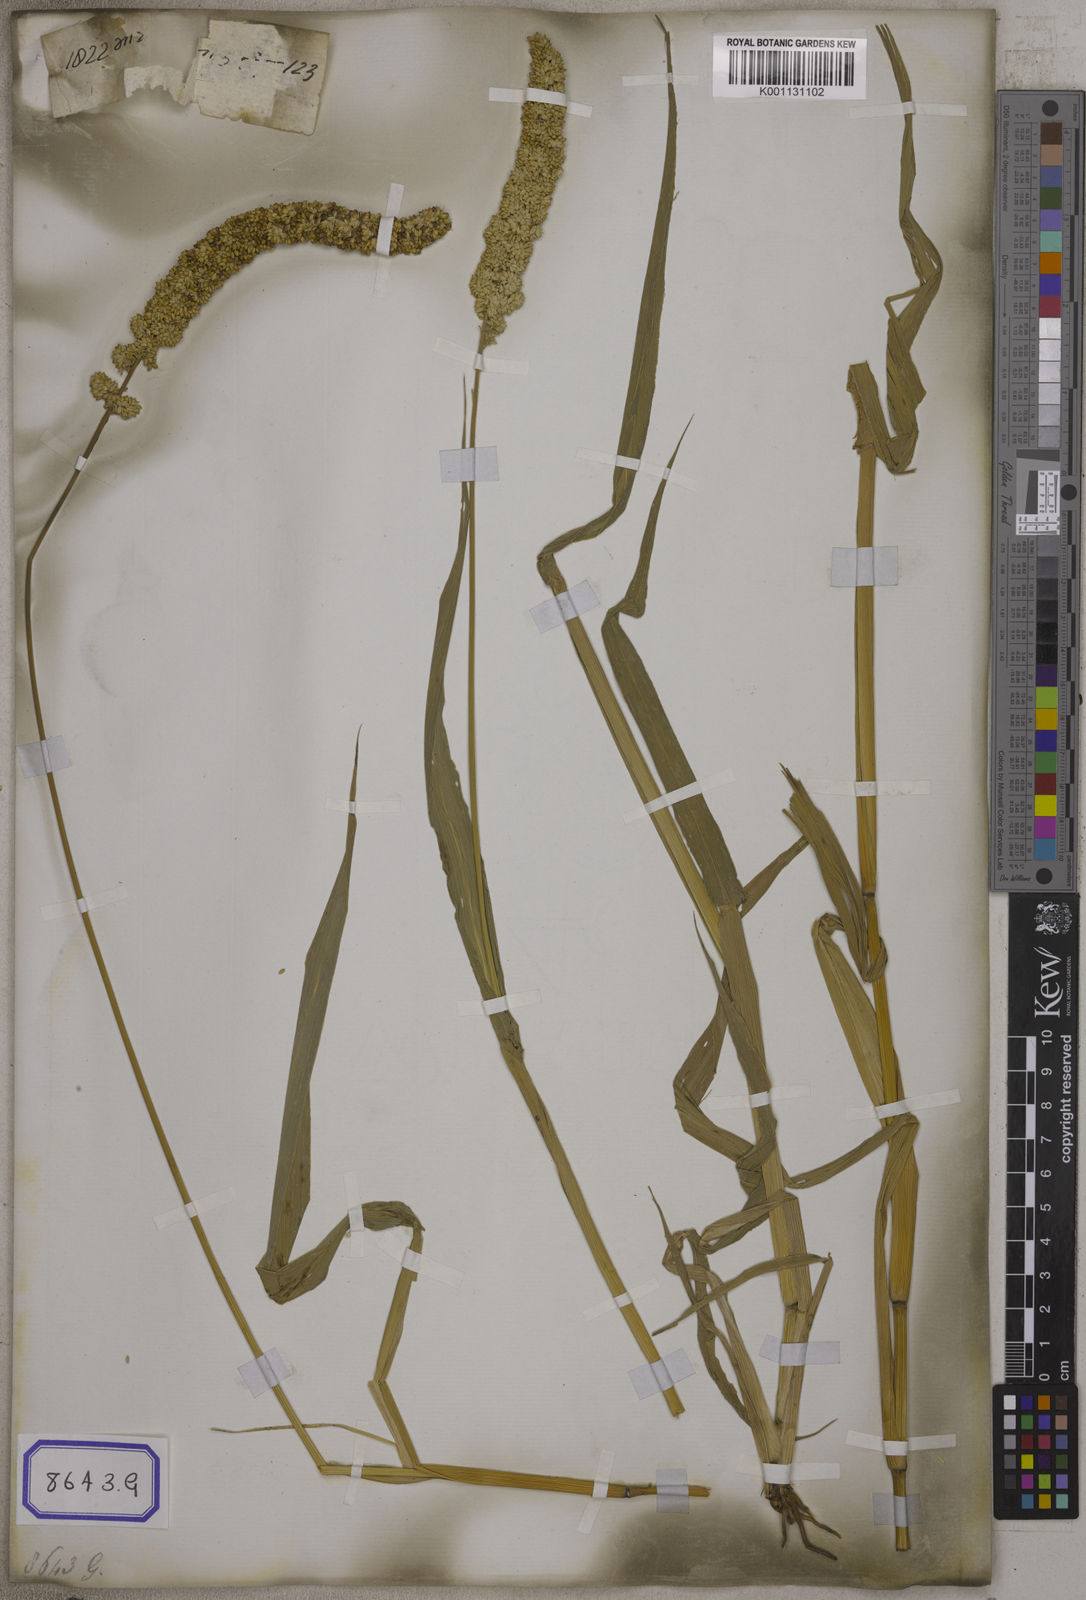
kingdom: Plantae
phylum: Tracheophyta
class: Liliopsida
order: Poales
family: Poaceae
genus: Setaria
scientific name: Setaria italica
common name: Foxtail bristle-grass
